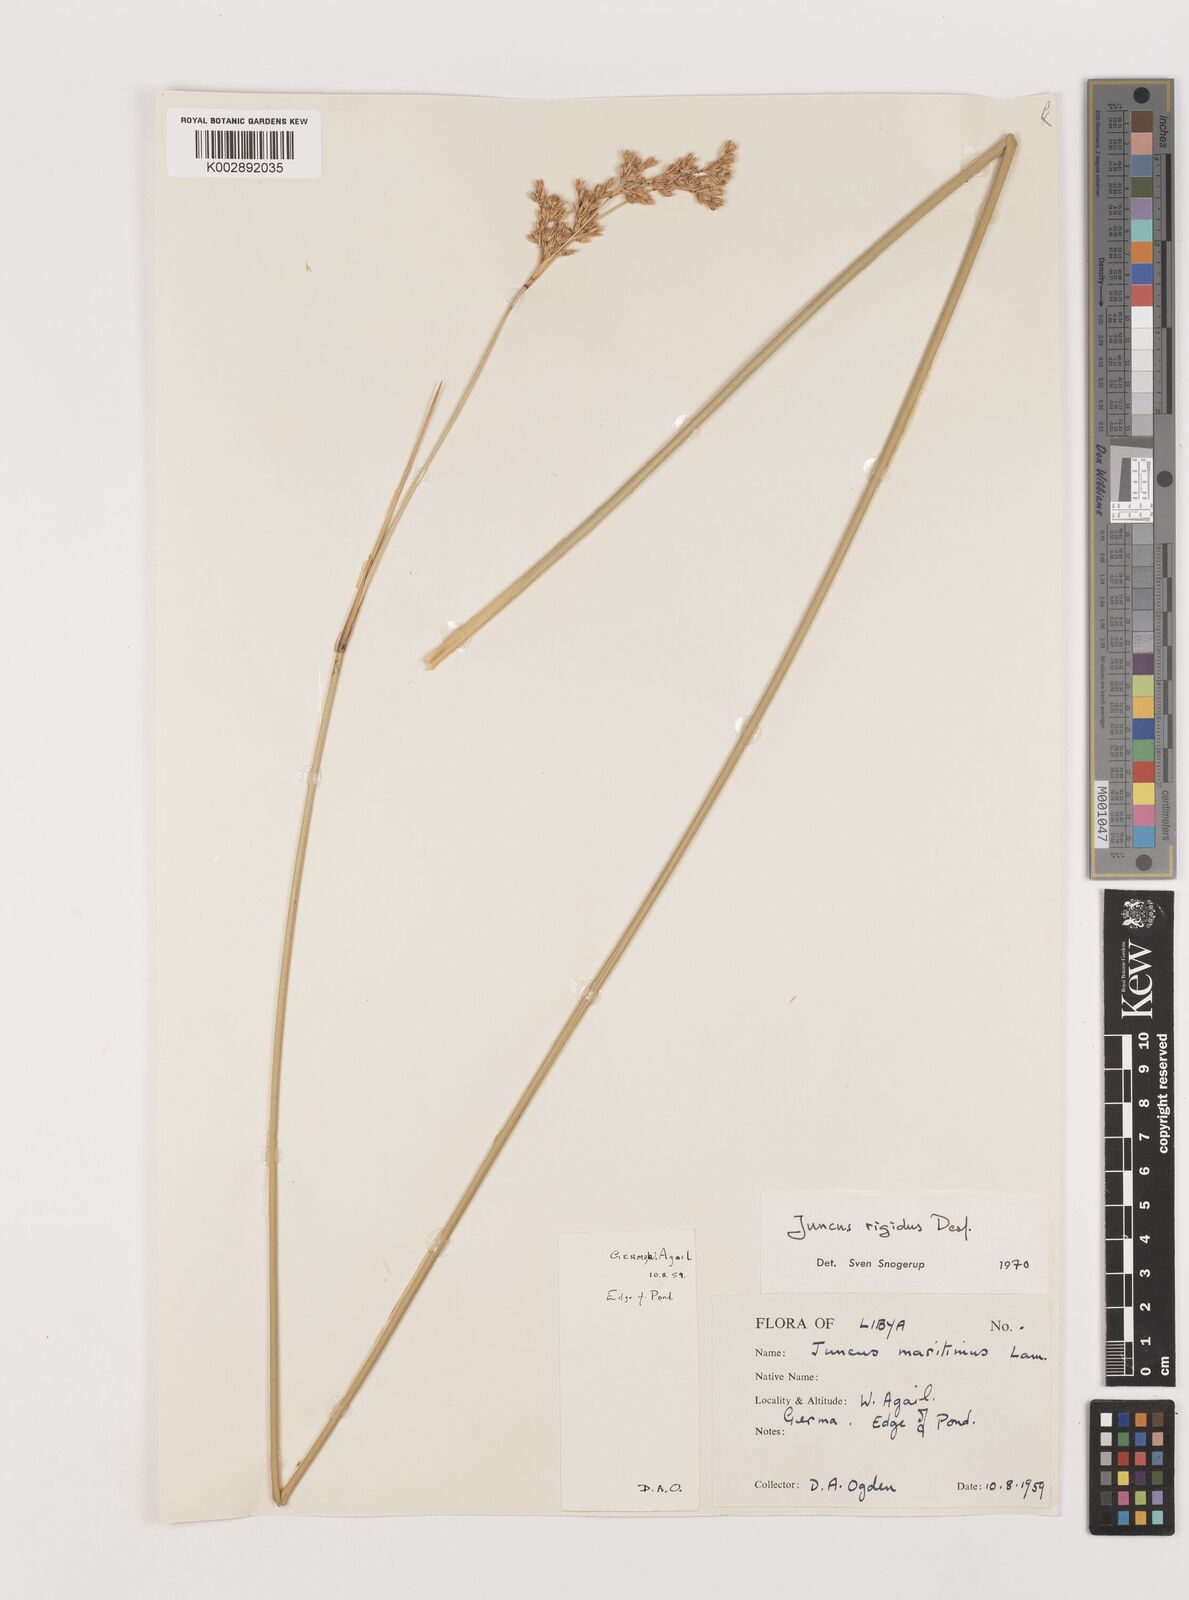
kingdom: Plantae
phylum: Tracheophyta
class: Liliopsida
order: Poales
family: Juncaceae
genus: Juncus
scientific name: Juncus rigidus
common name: Hard sea rush
